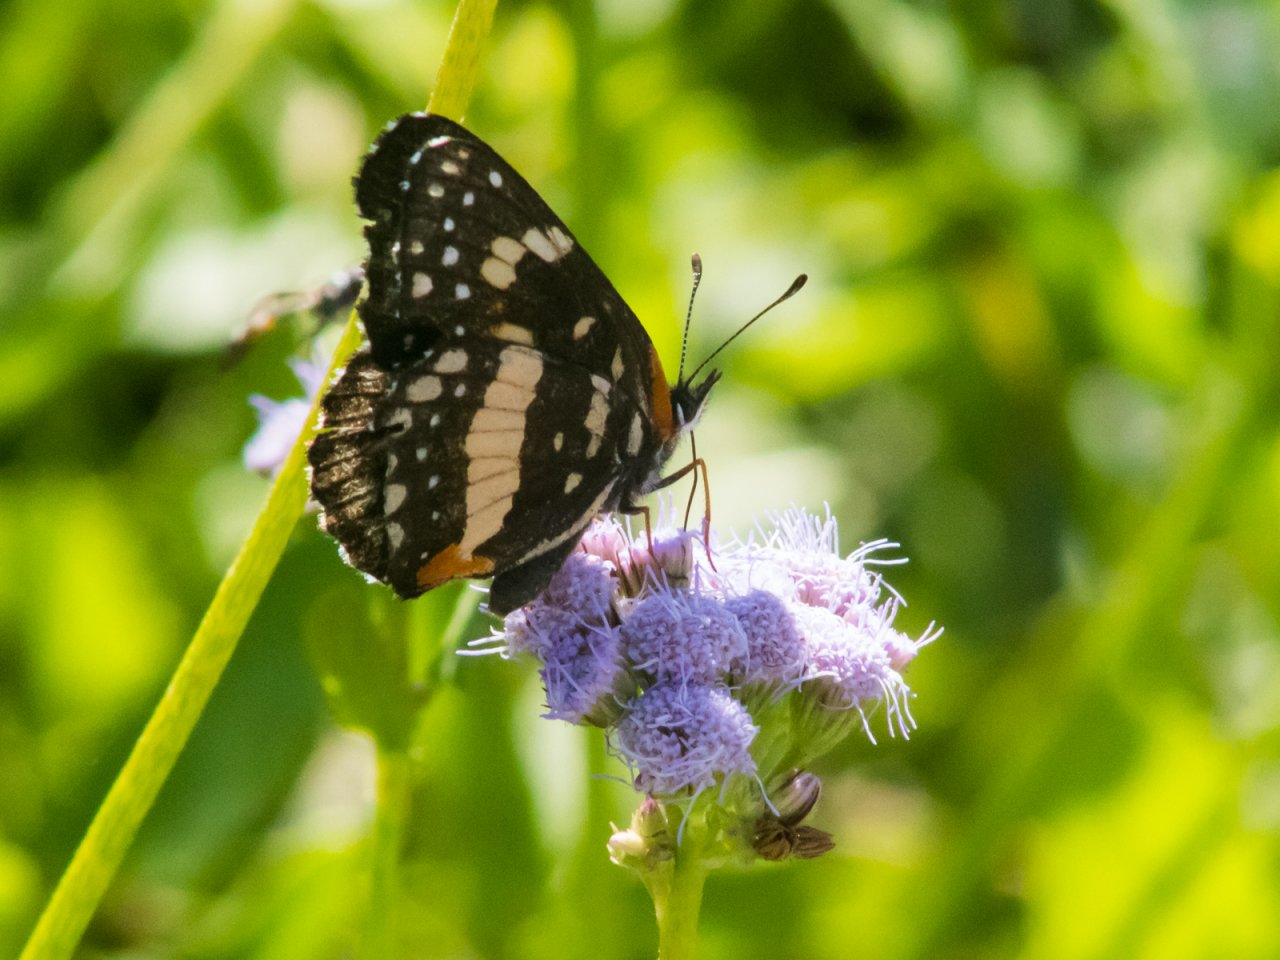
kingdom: Animalia
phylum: Arthropoda
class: Insecta
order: Lepidoptera
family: Nymphalidae
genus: Chlosyne
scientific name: Chlosyne lacinia
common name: Bordered Patch
